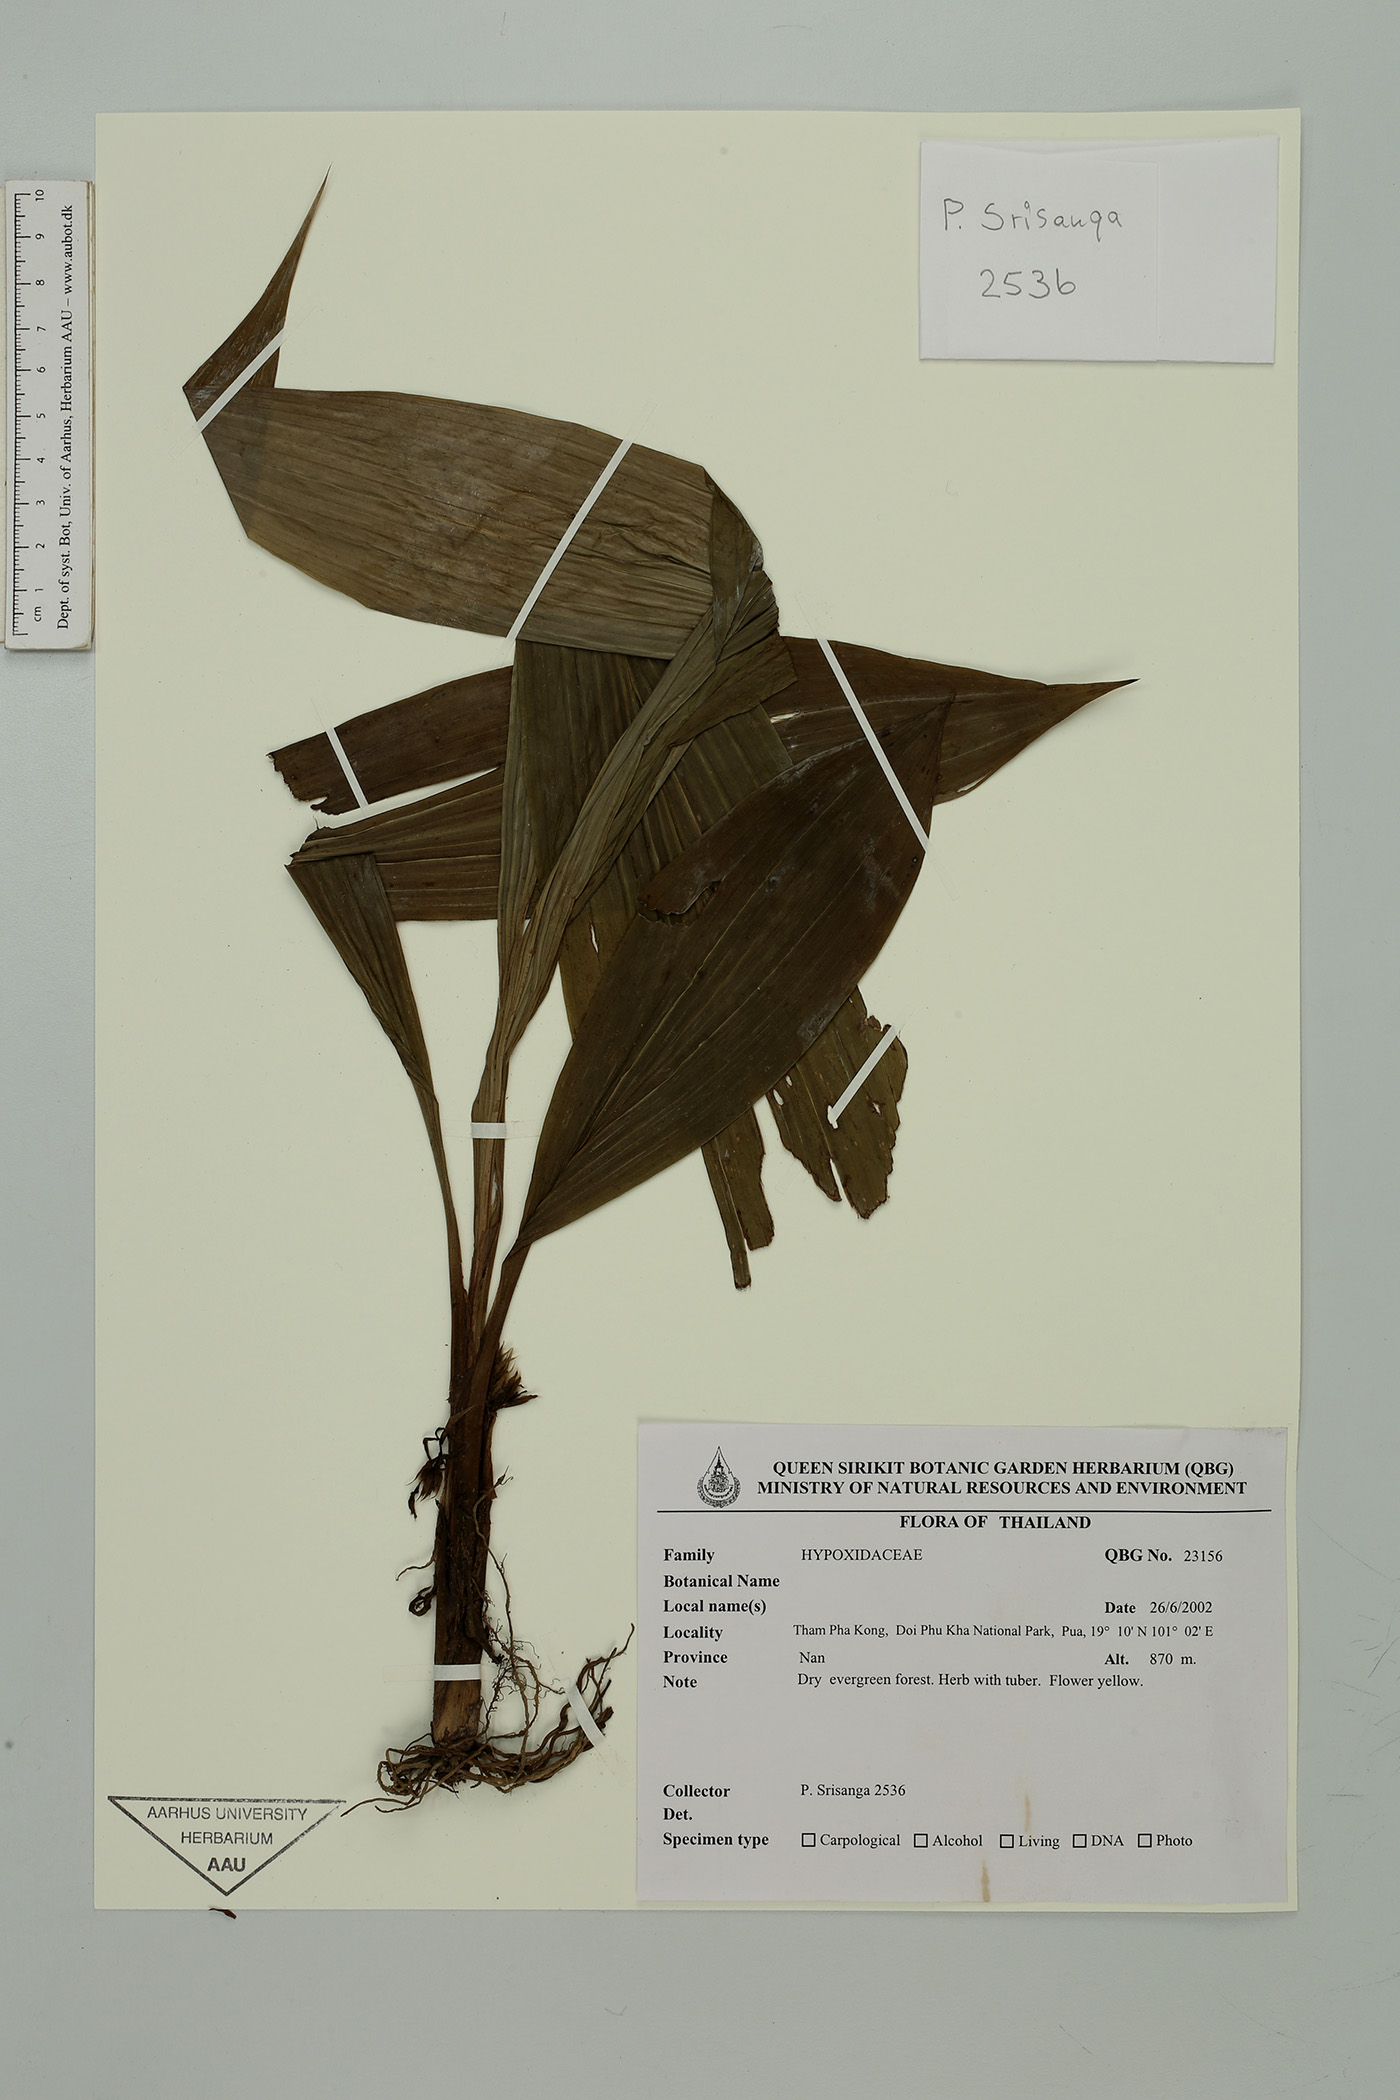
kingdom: Plantae
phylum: Tracheophyta
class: Liliopsida
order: Asparagales
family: Hypoxidaceae
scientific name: Hypoxidaceae
